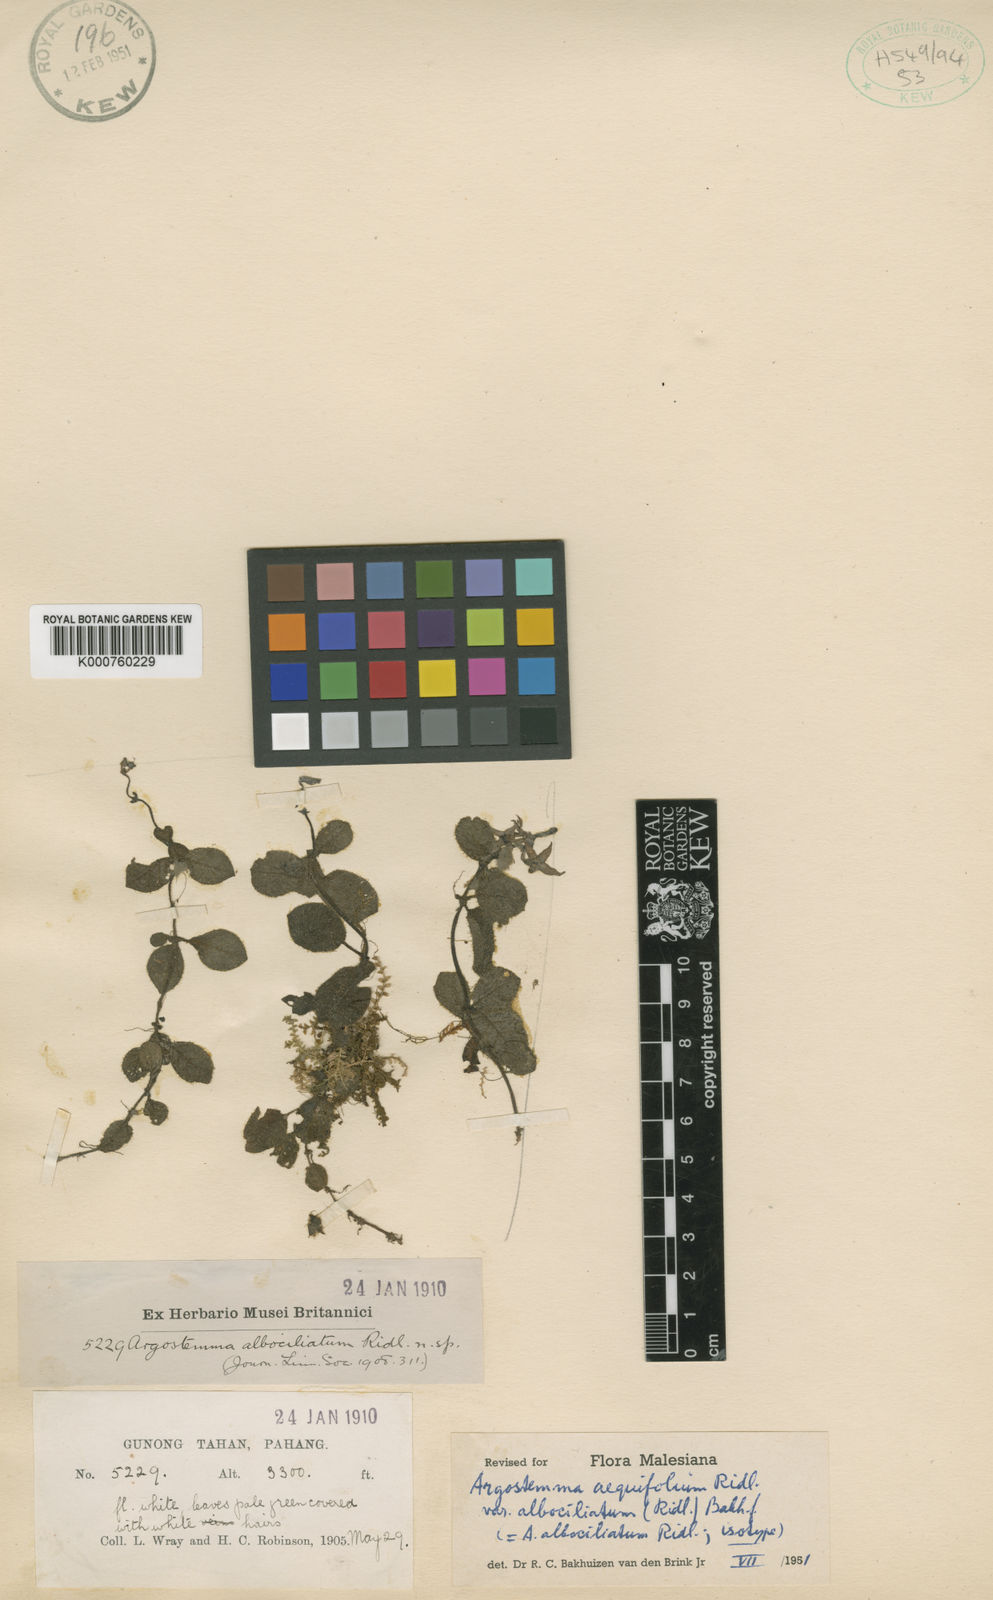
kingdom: Plantae
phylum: Tracheophyta
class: Magnoliopsida
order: Gentianales
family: Rubiaceae
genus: Argostemma
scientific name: Argostemma aequifolium
